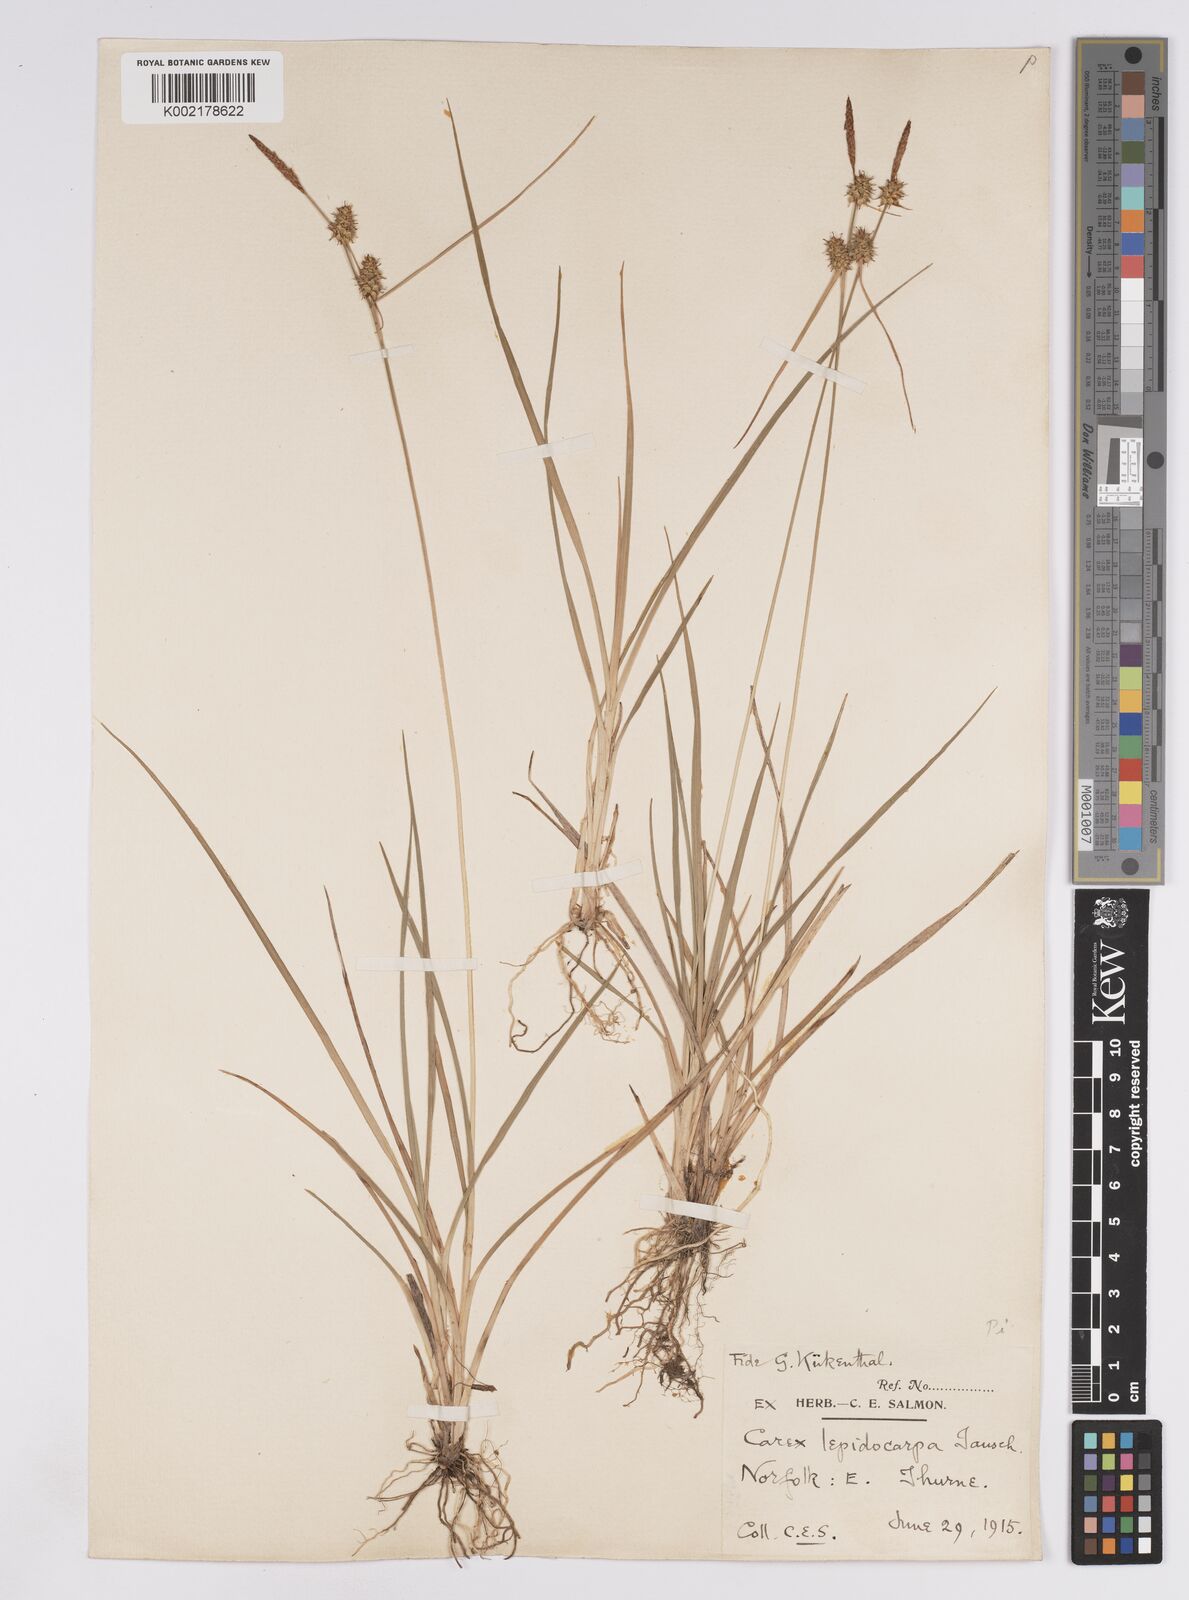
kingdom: Plantae
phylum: Tracheophyta
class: Liliopsida
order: Poales
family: Cyperaceae
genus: Carex
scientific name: Carex lepidocarpa
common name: Long-stalked yellow-sedge
